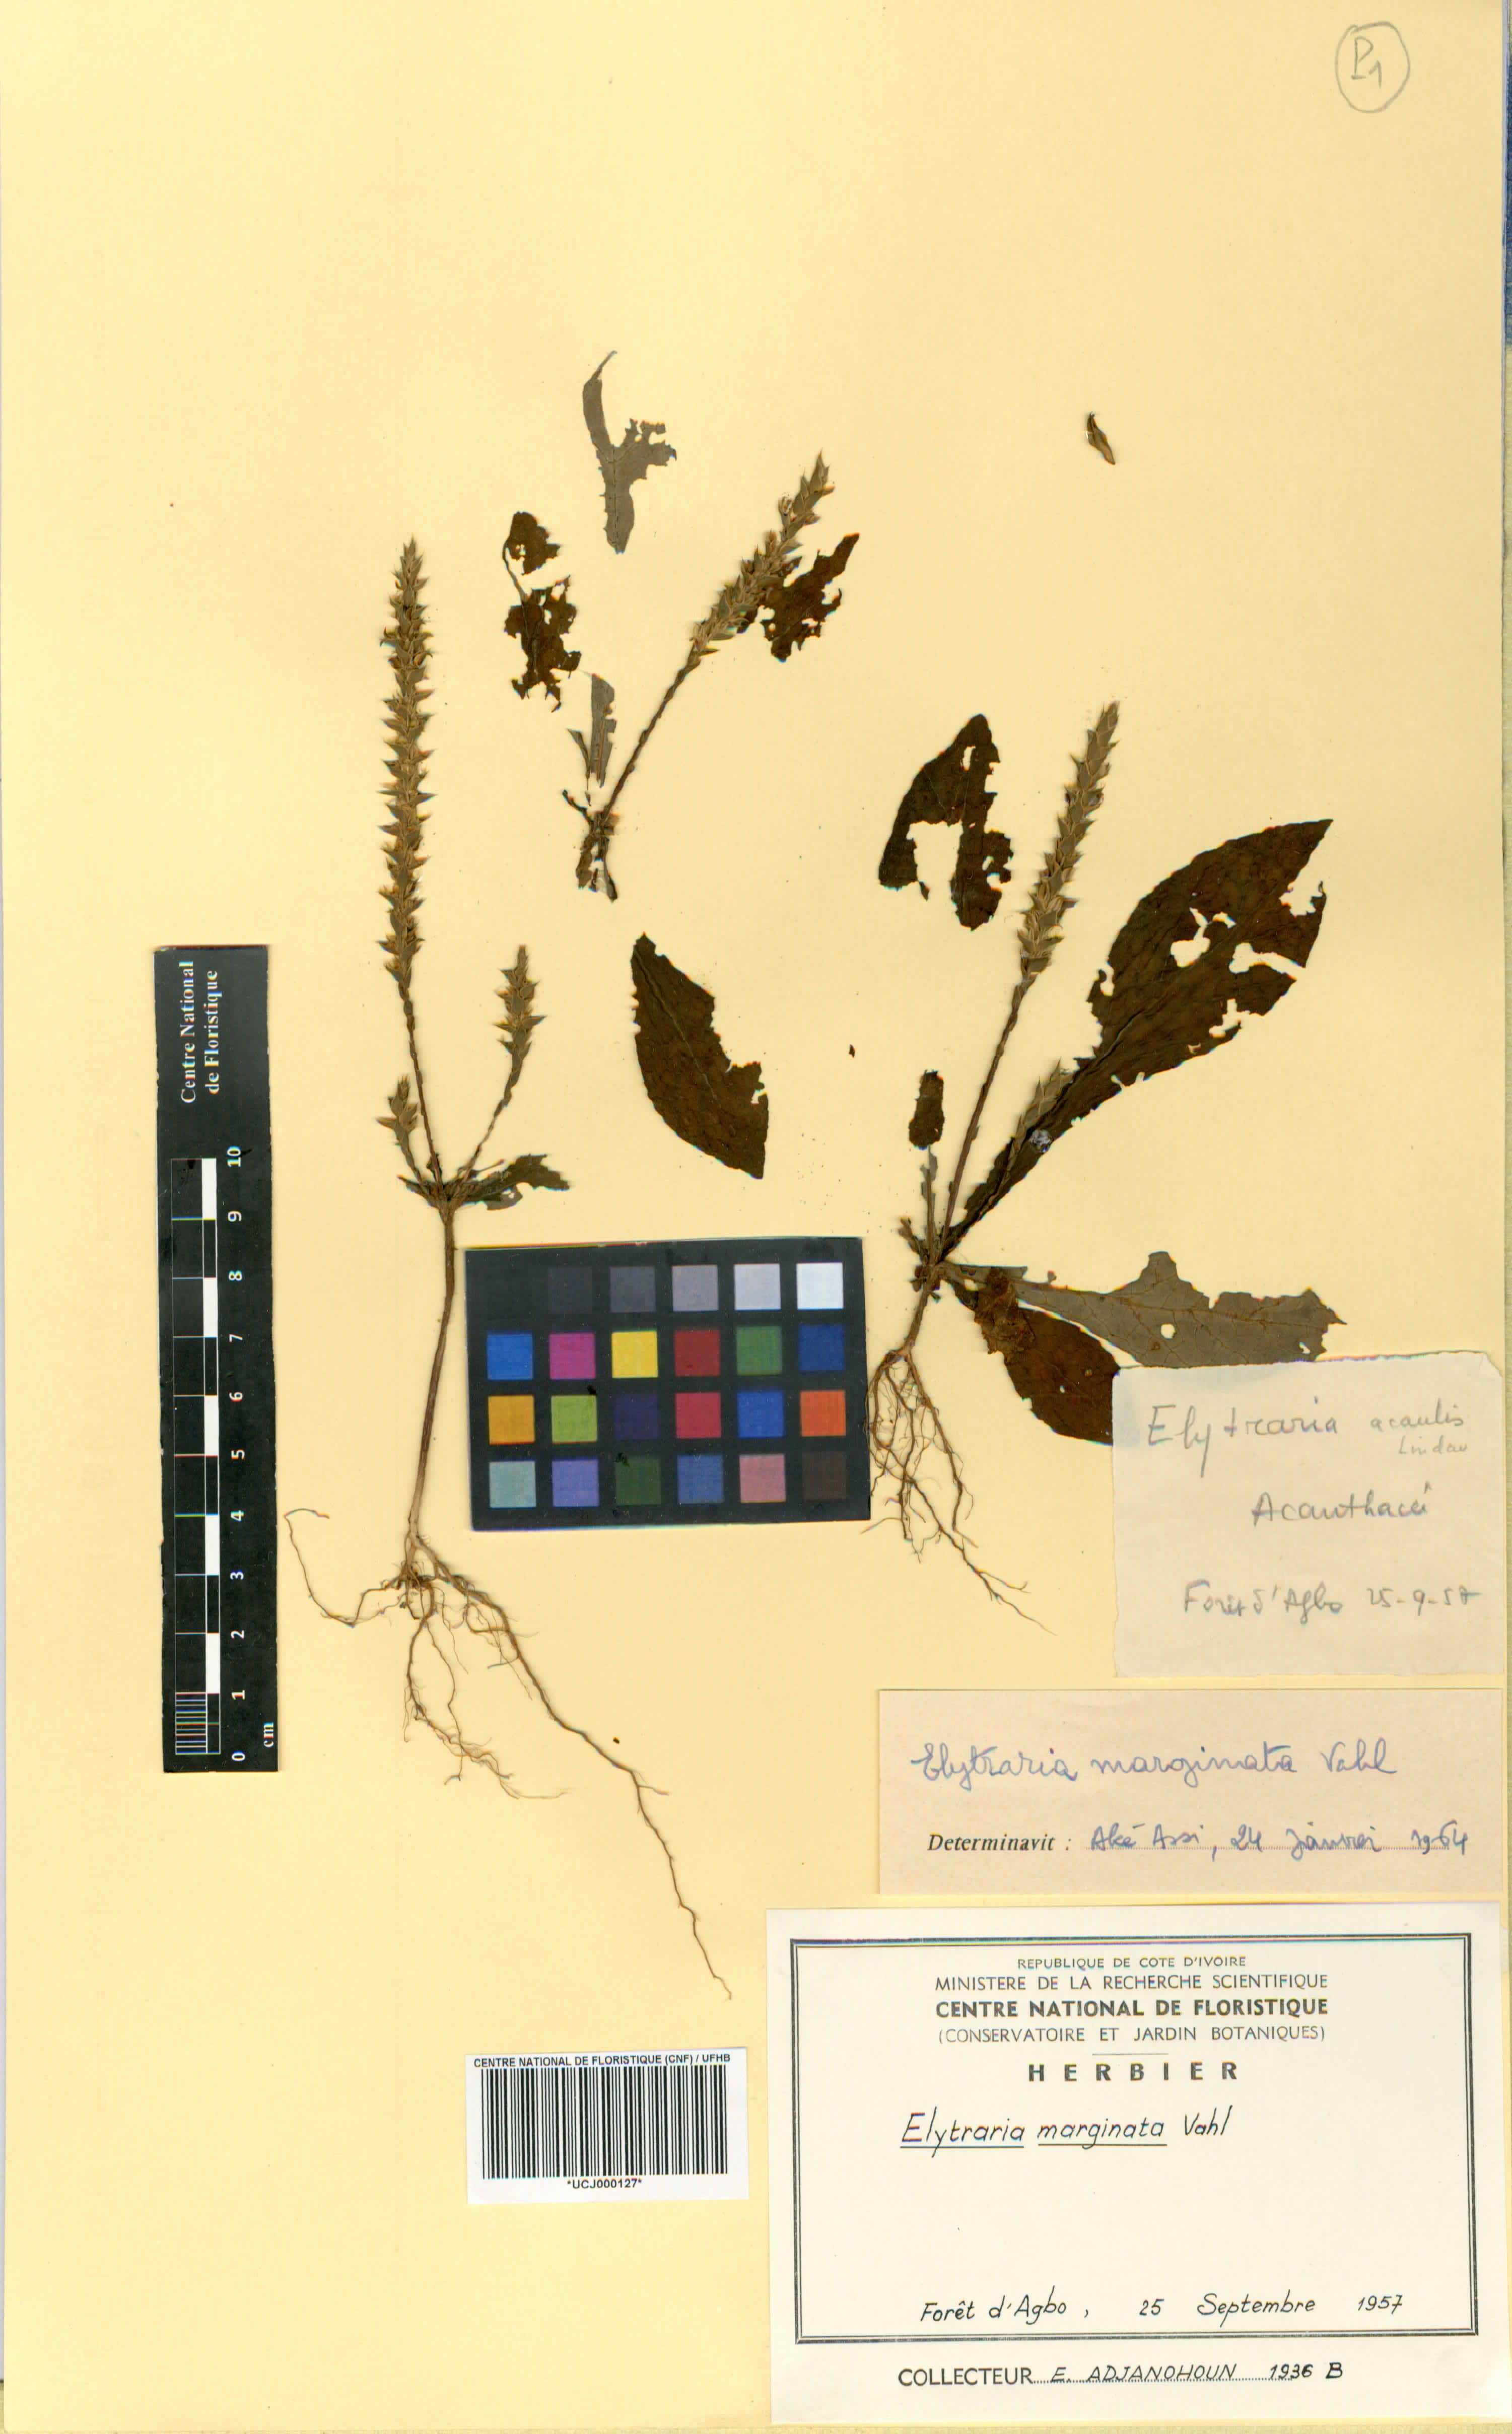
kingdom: Plantae
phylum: Tracheophyta
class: Magnoliopsida
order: Lamiales
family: Acanthaceae
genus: Elytraria
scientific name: Elytraria marginata
